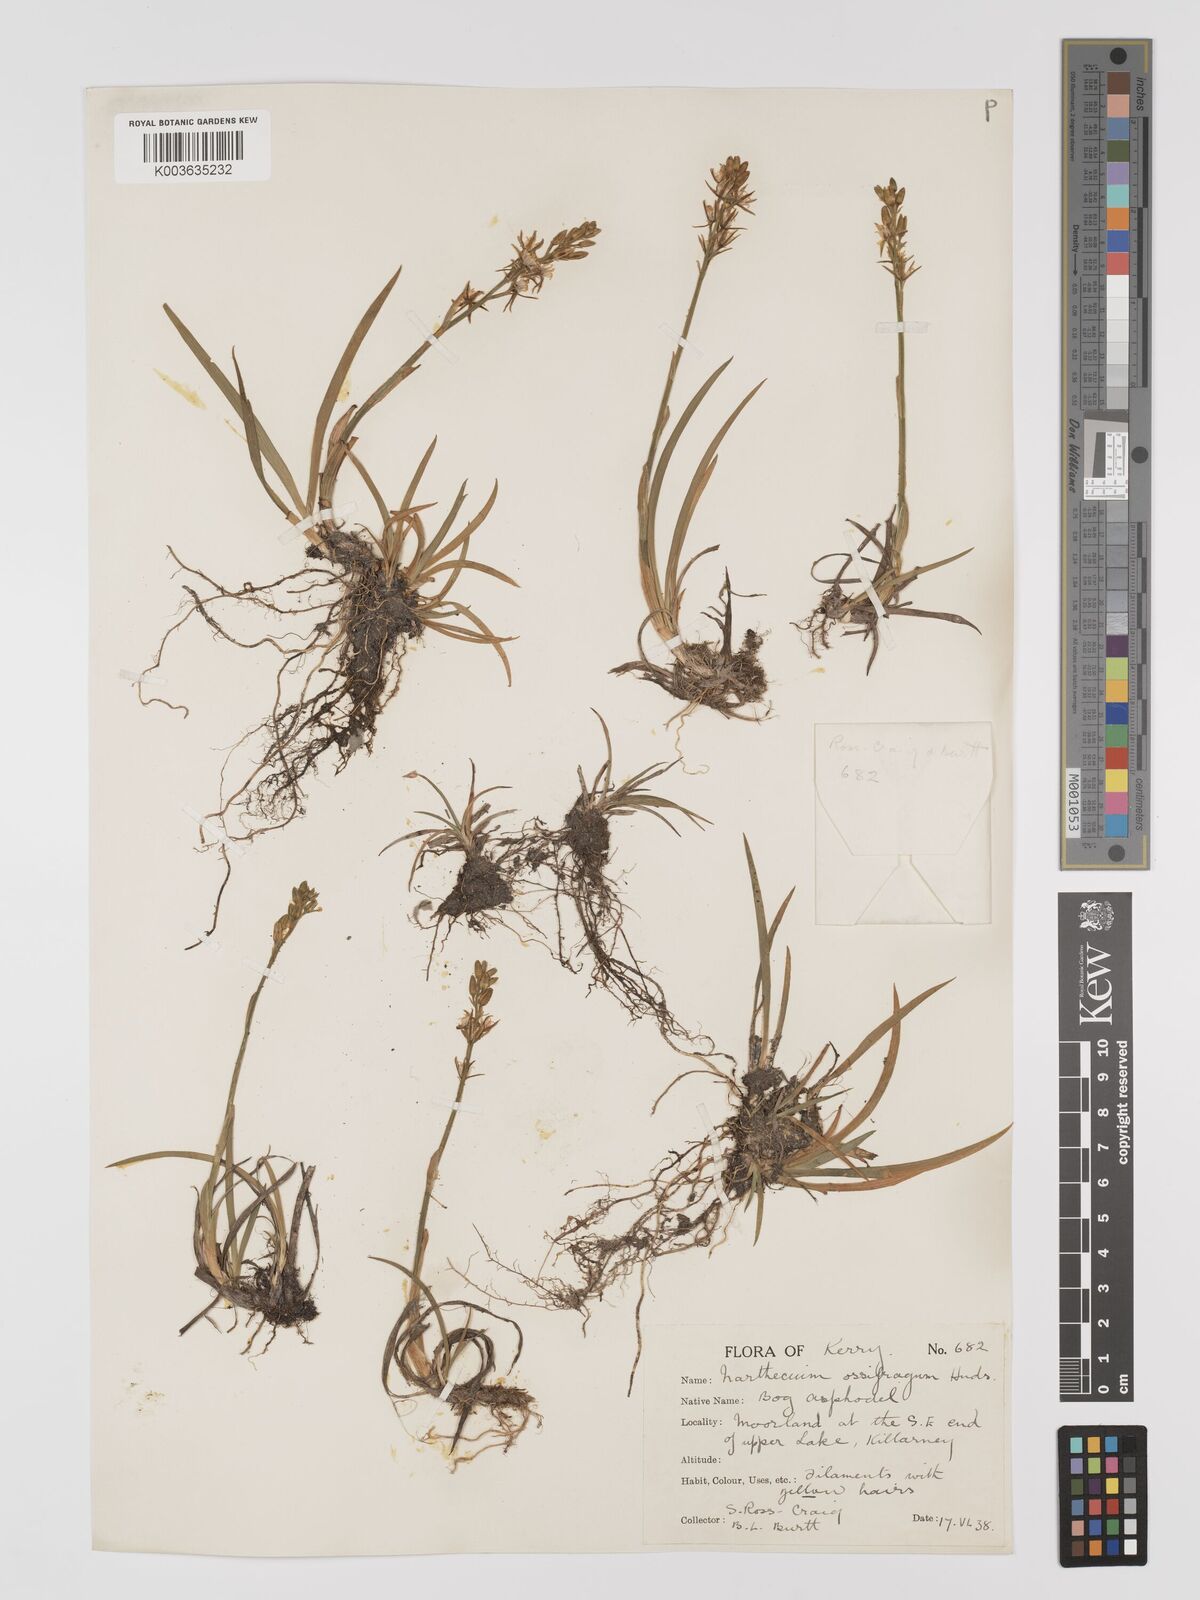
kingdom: Plantae
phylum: Tracheophyta
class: Liliopsida
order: Dioscoreales
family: Nartheciaceae
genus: Narthecium
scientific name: Narthecium ossifragum
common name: Bog asphodel
